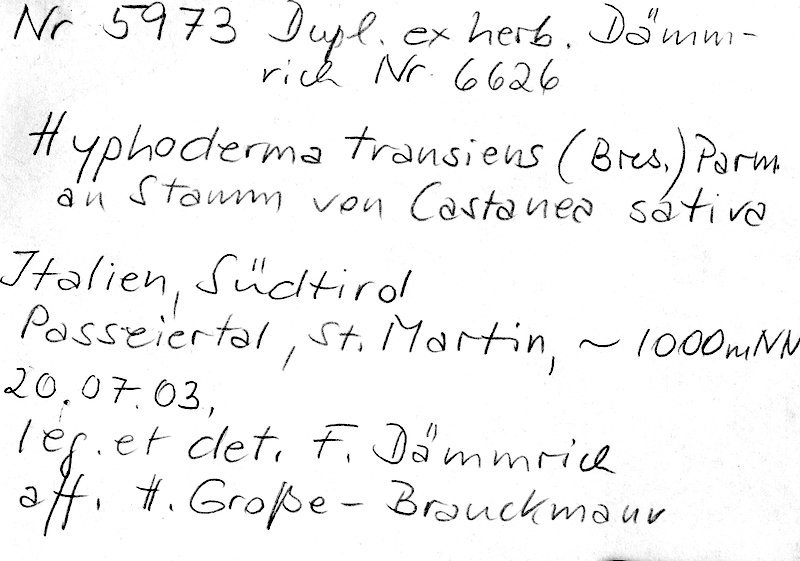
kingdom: Fungi
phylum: Basidiomycota
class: Agaricomycetes
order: Polyporales
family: Hyphodermataceae
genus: Hyphoderma
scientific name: Hyphoderma transiens
